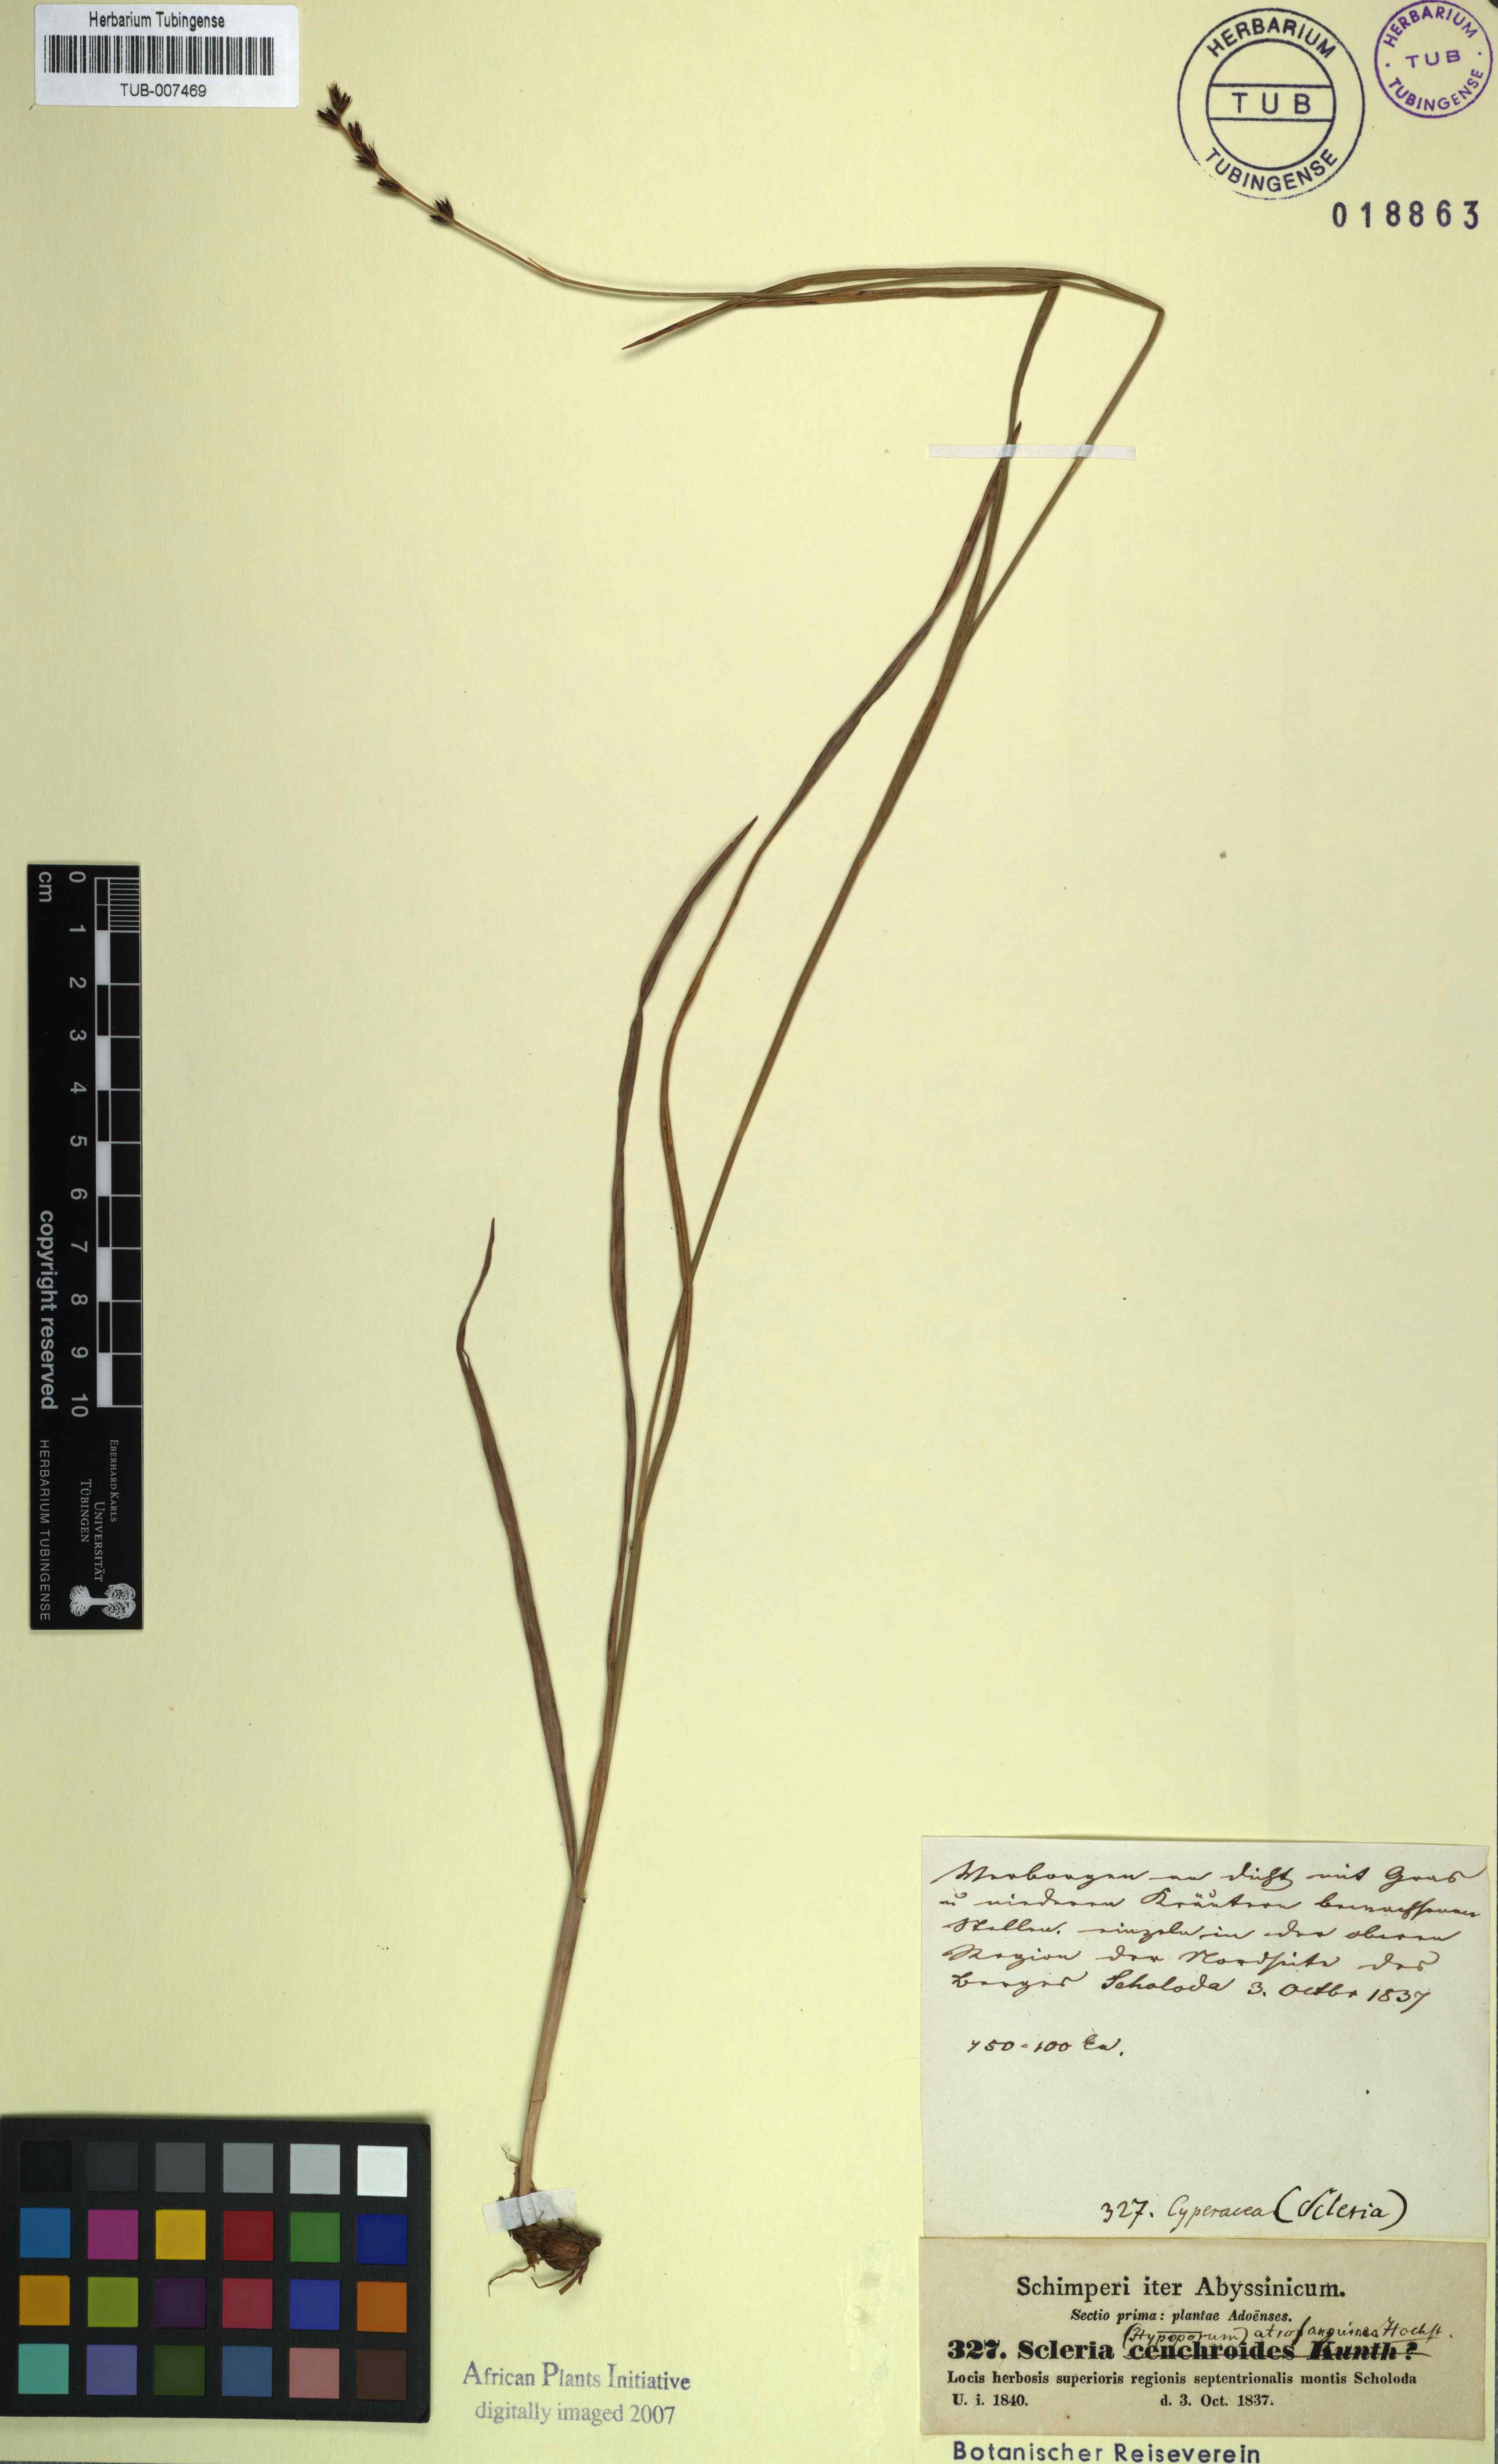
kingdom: Plantae
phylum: Tracheophyta
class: Liliopsida
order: Poales
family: Cyperaceae
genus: Scleria
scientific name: Scleria bulbifera
